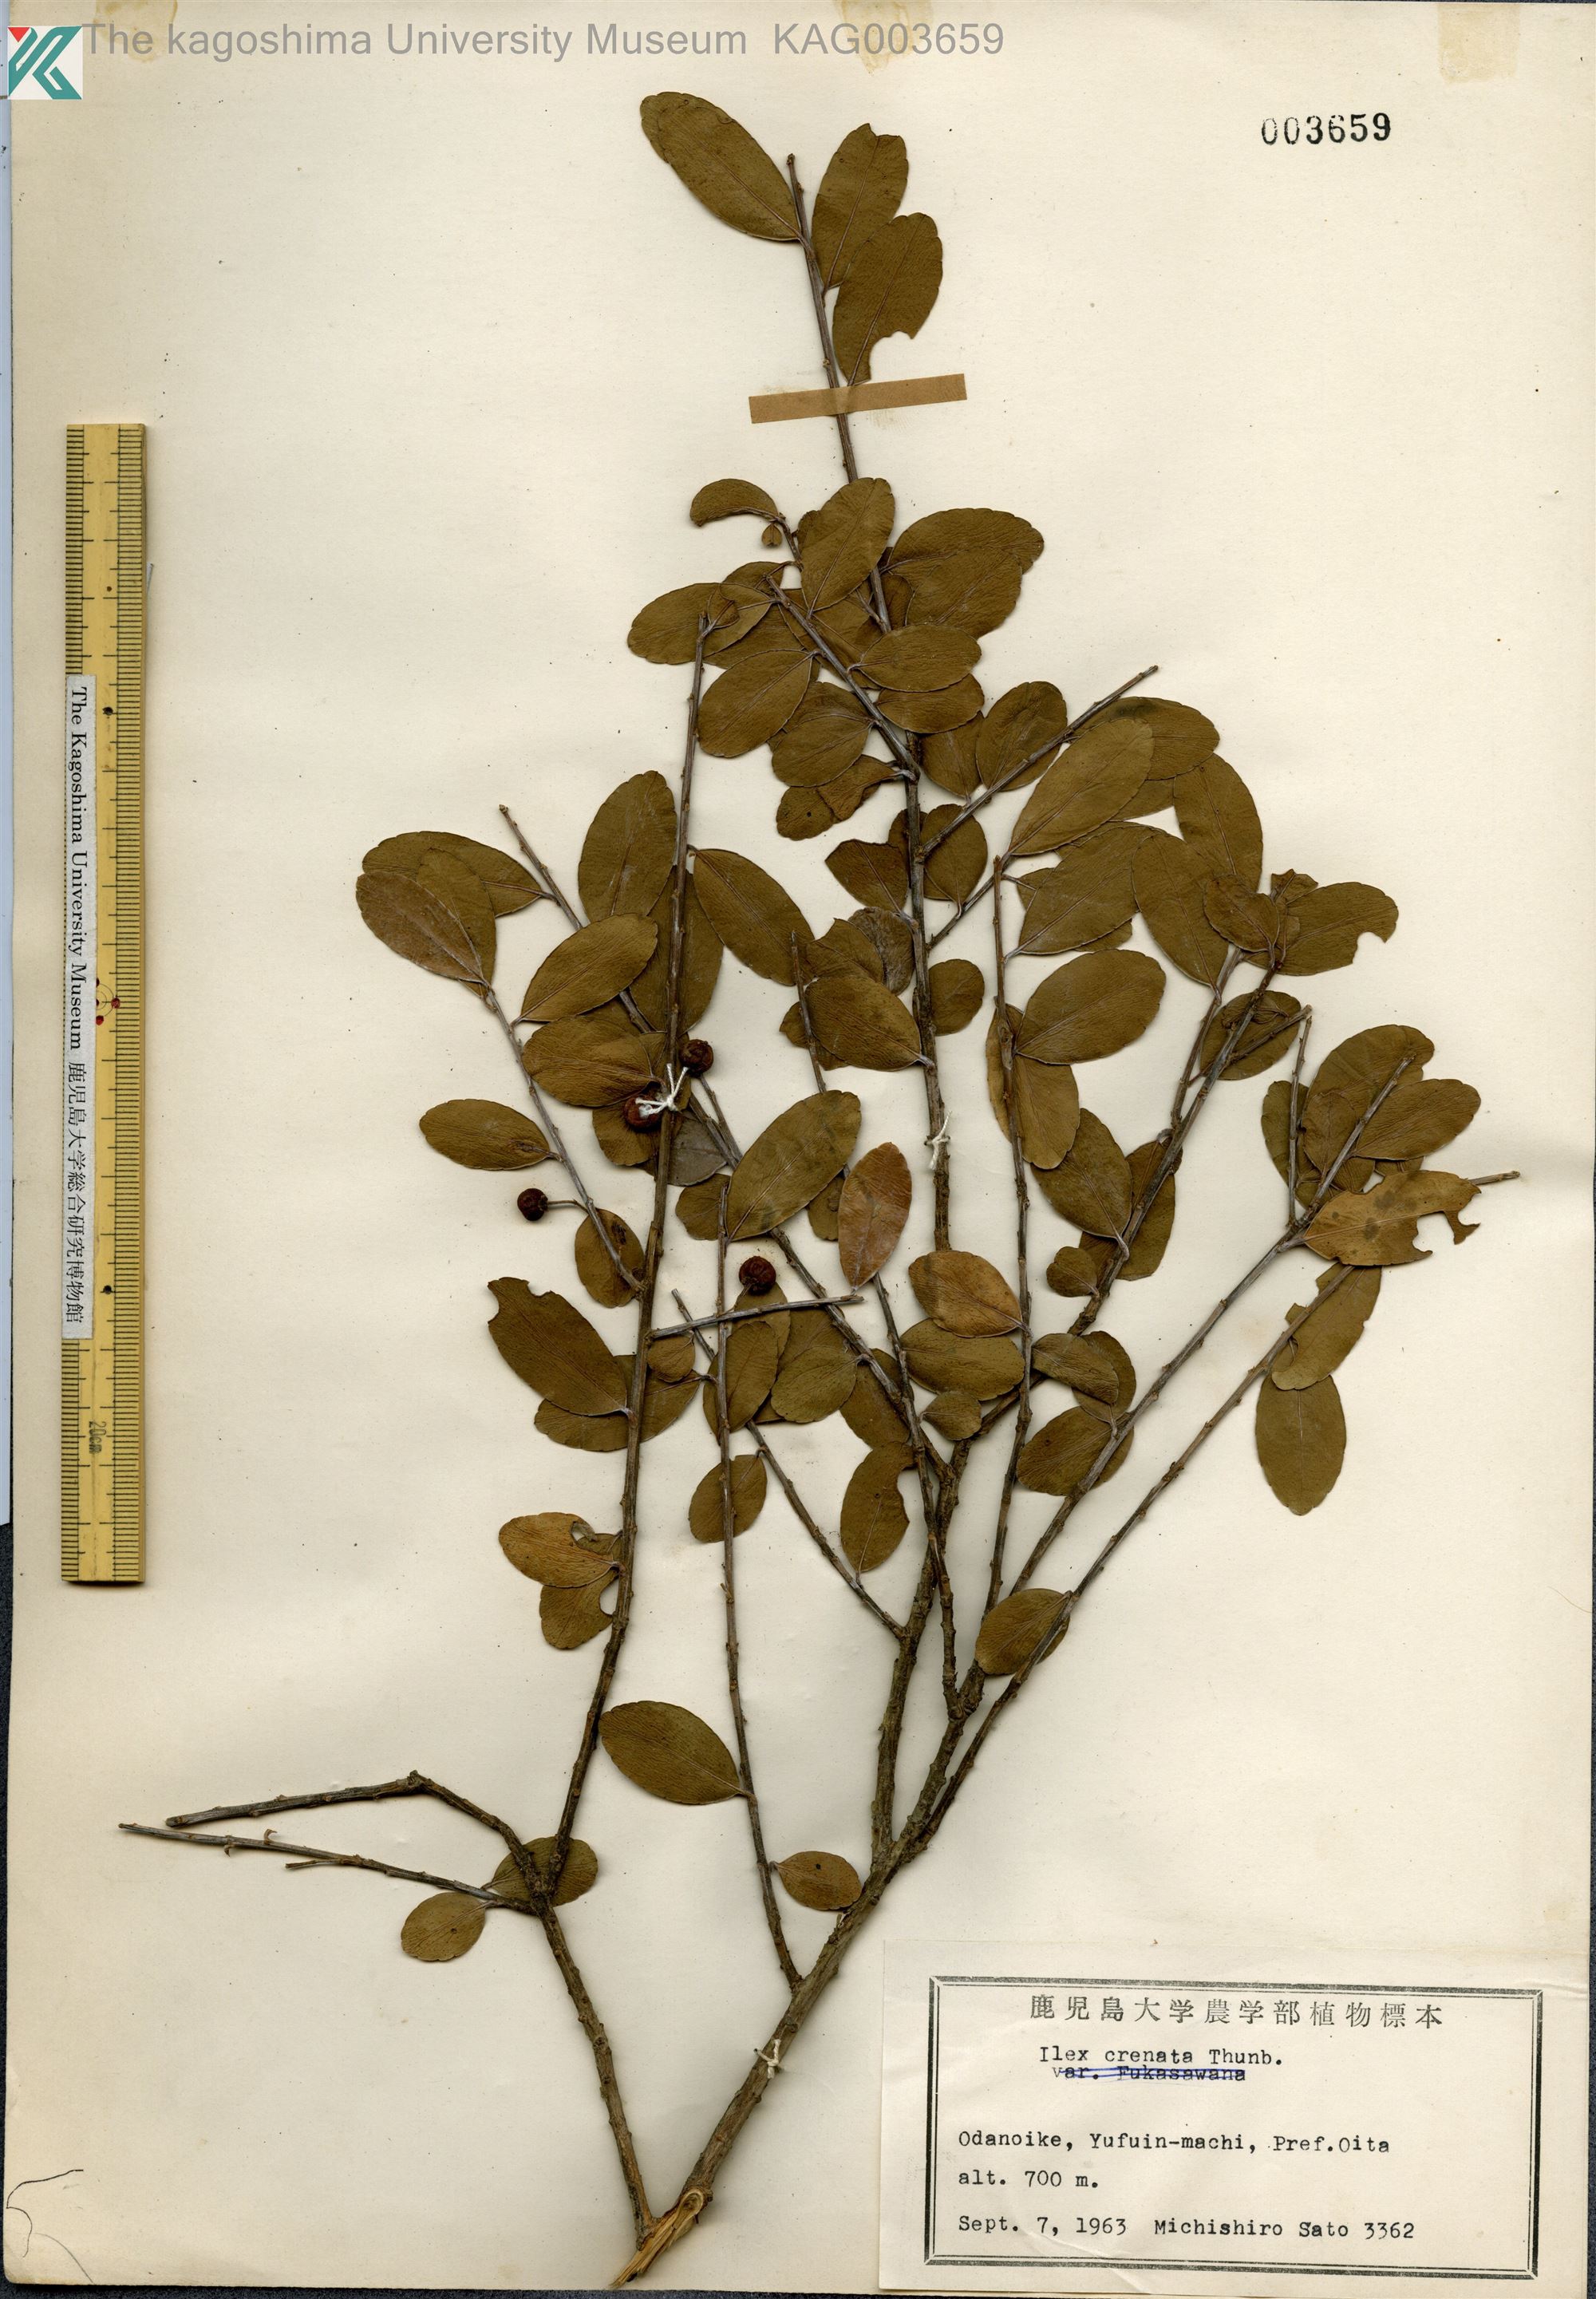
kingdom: Plantae
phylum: Tracheophyta
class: Magnoliopsida
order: Aquifoliales
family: Aquifoliaceae
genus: Ilex
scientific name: Ilex crenata
